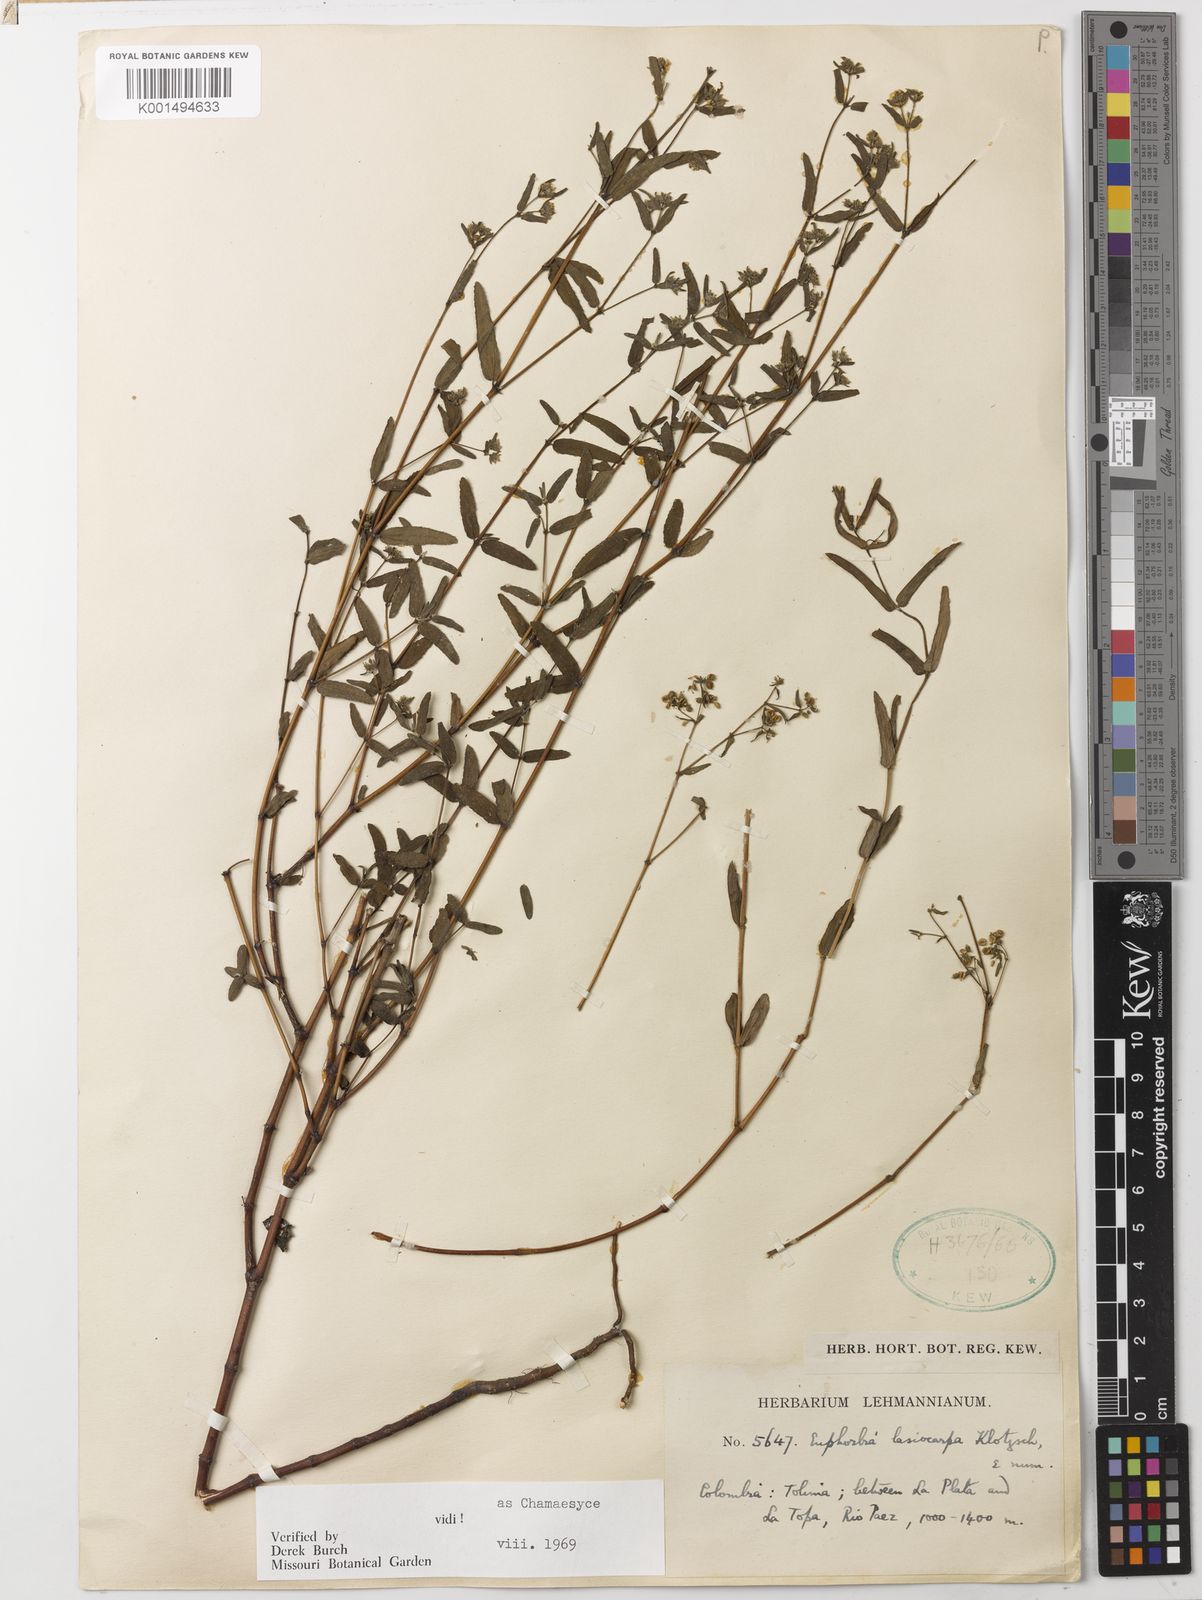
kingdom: Plantae
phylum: Tracheophyta
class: Magnoliopsida
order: Malpighiales
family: Euphorbiaceae
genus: Euphorbia
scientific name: Euphorbia lasiocarpa
